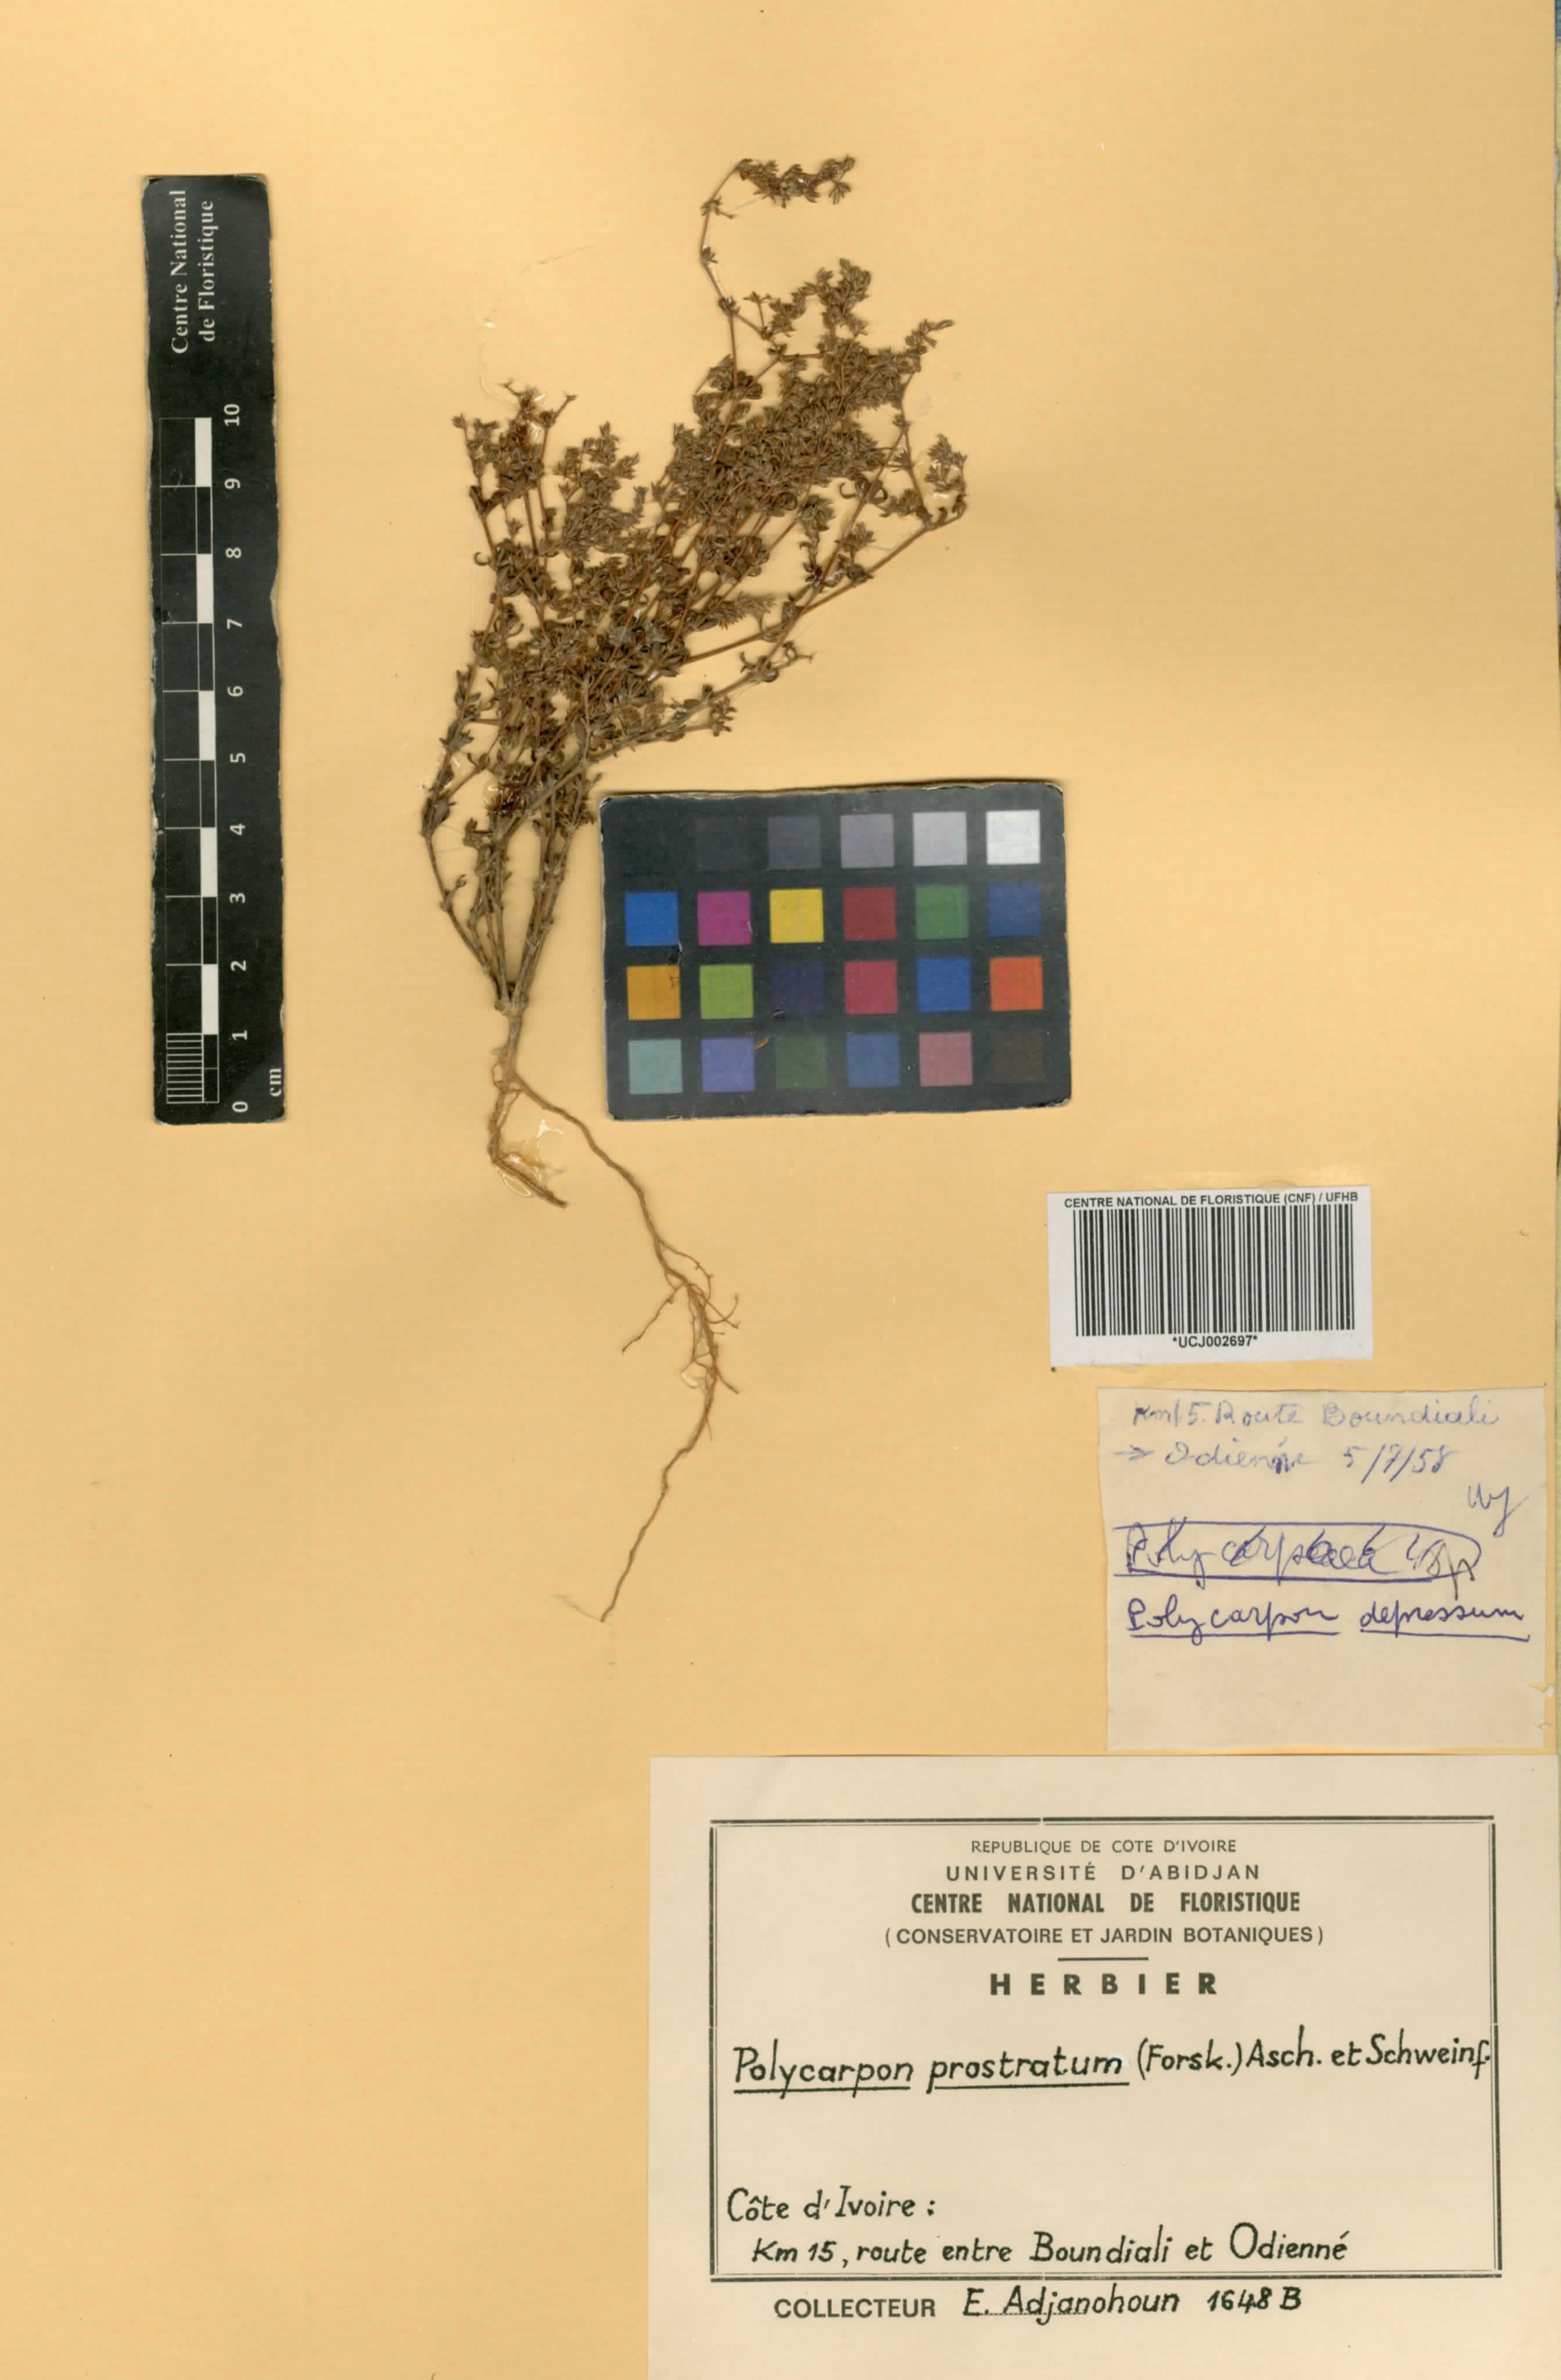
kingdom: Plantae
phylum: Tracheophyta
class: Magnoliopsida
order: Caryophyllales
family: Caryophyllaceae
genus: Polycarpon
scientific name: Polycarpon prostratum
